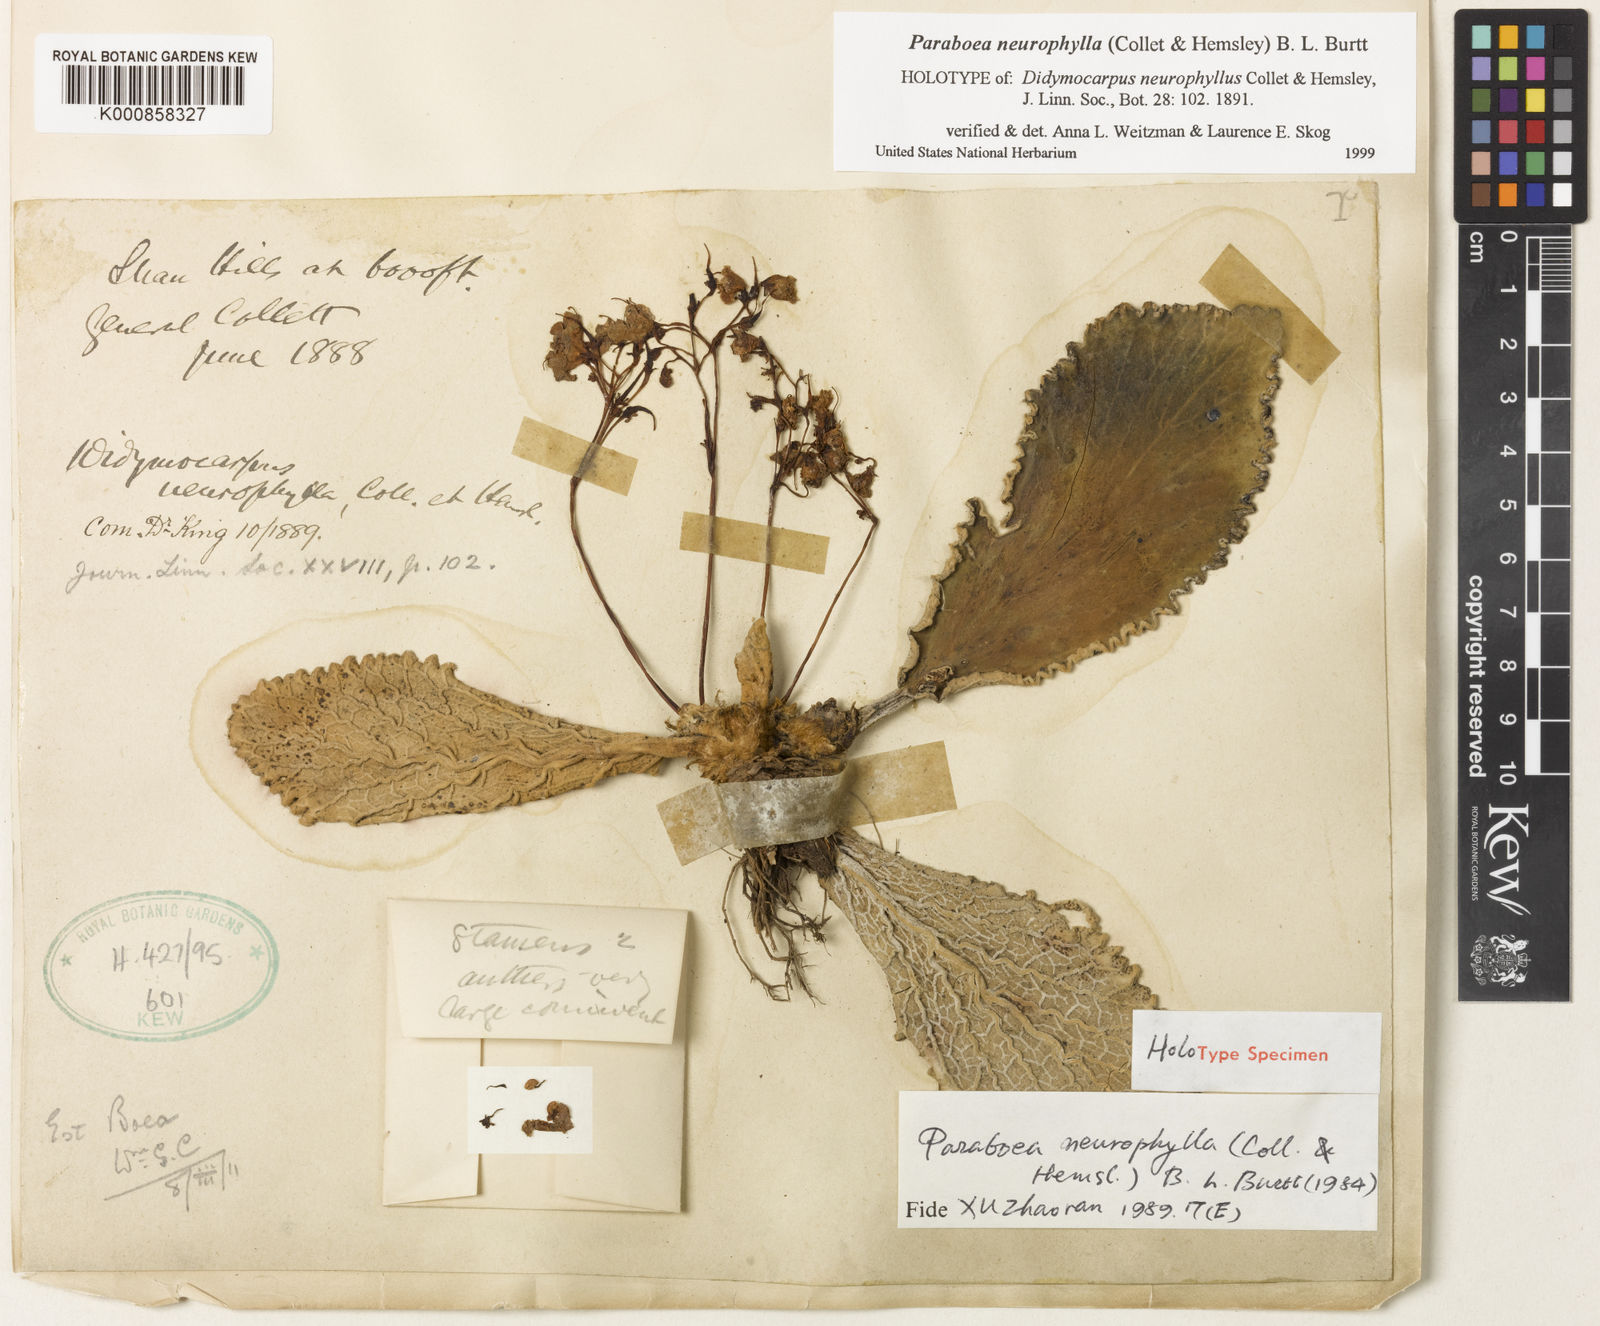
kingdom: Plantae
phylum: Tracheophyta
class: Magnoliopsida
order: Lamiales
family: Gesneriaceae
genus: Paraboea
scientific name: Paraboea neurophylla
